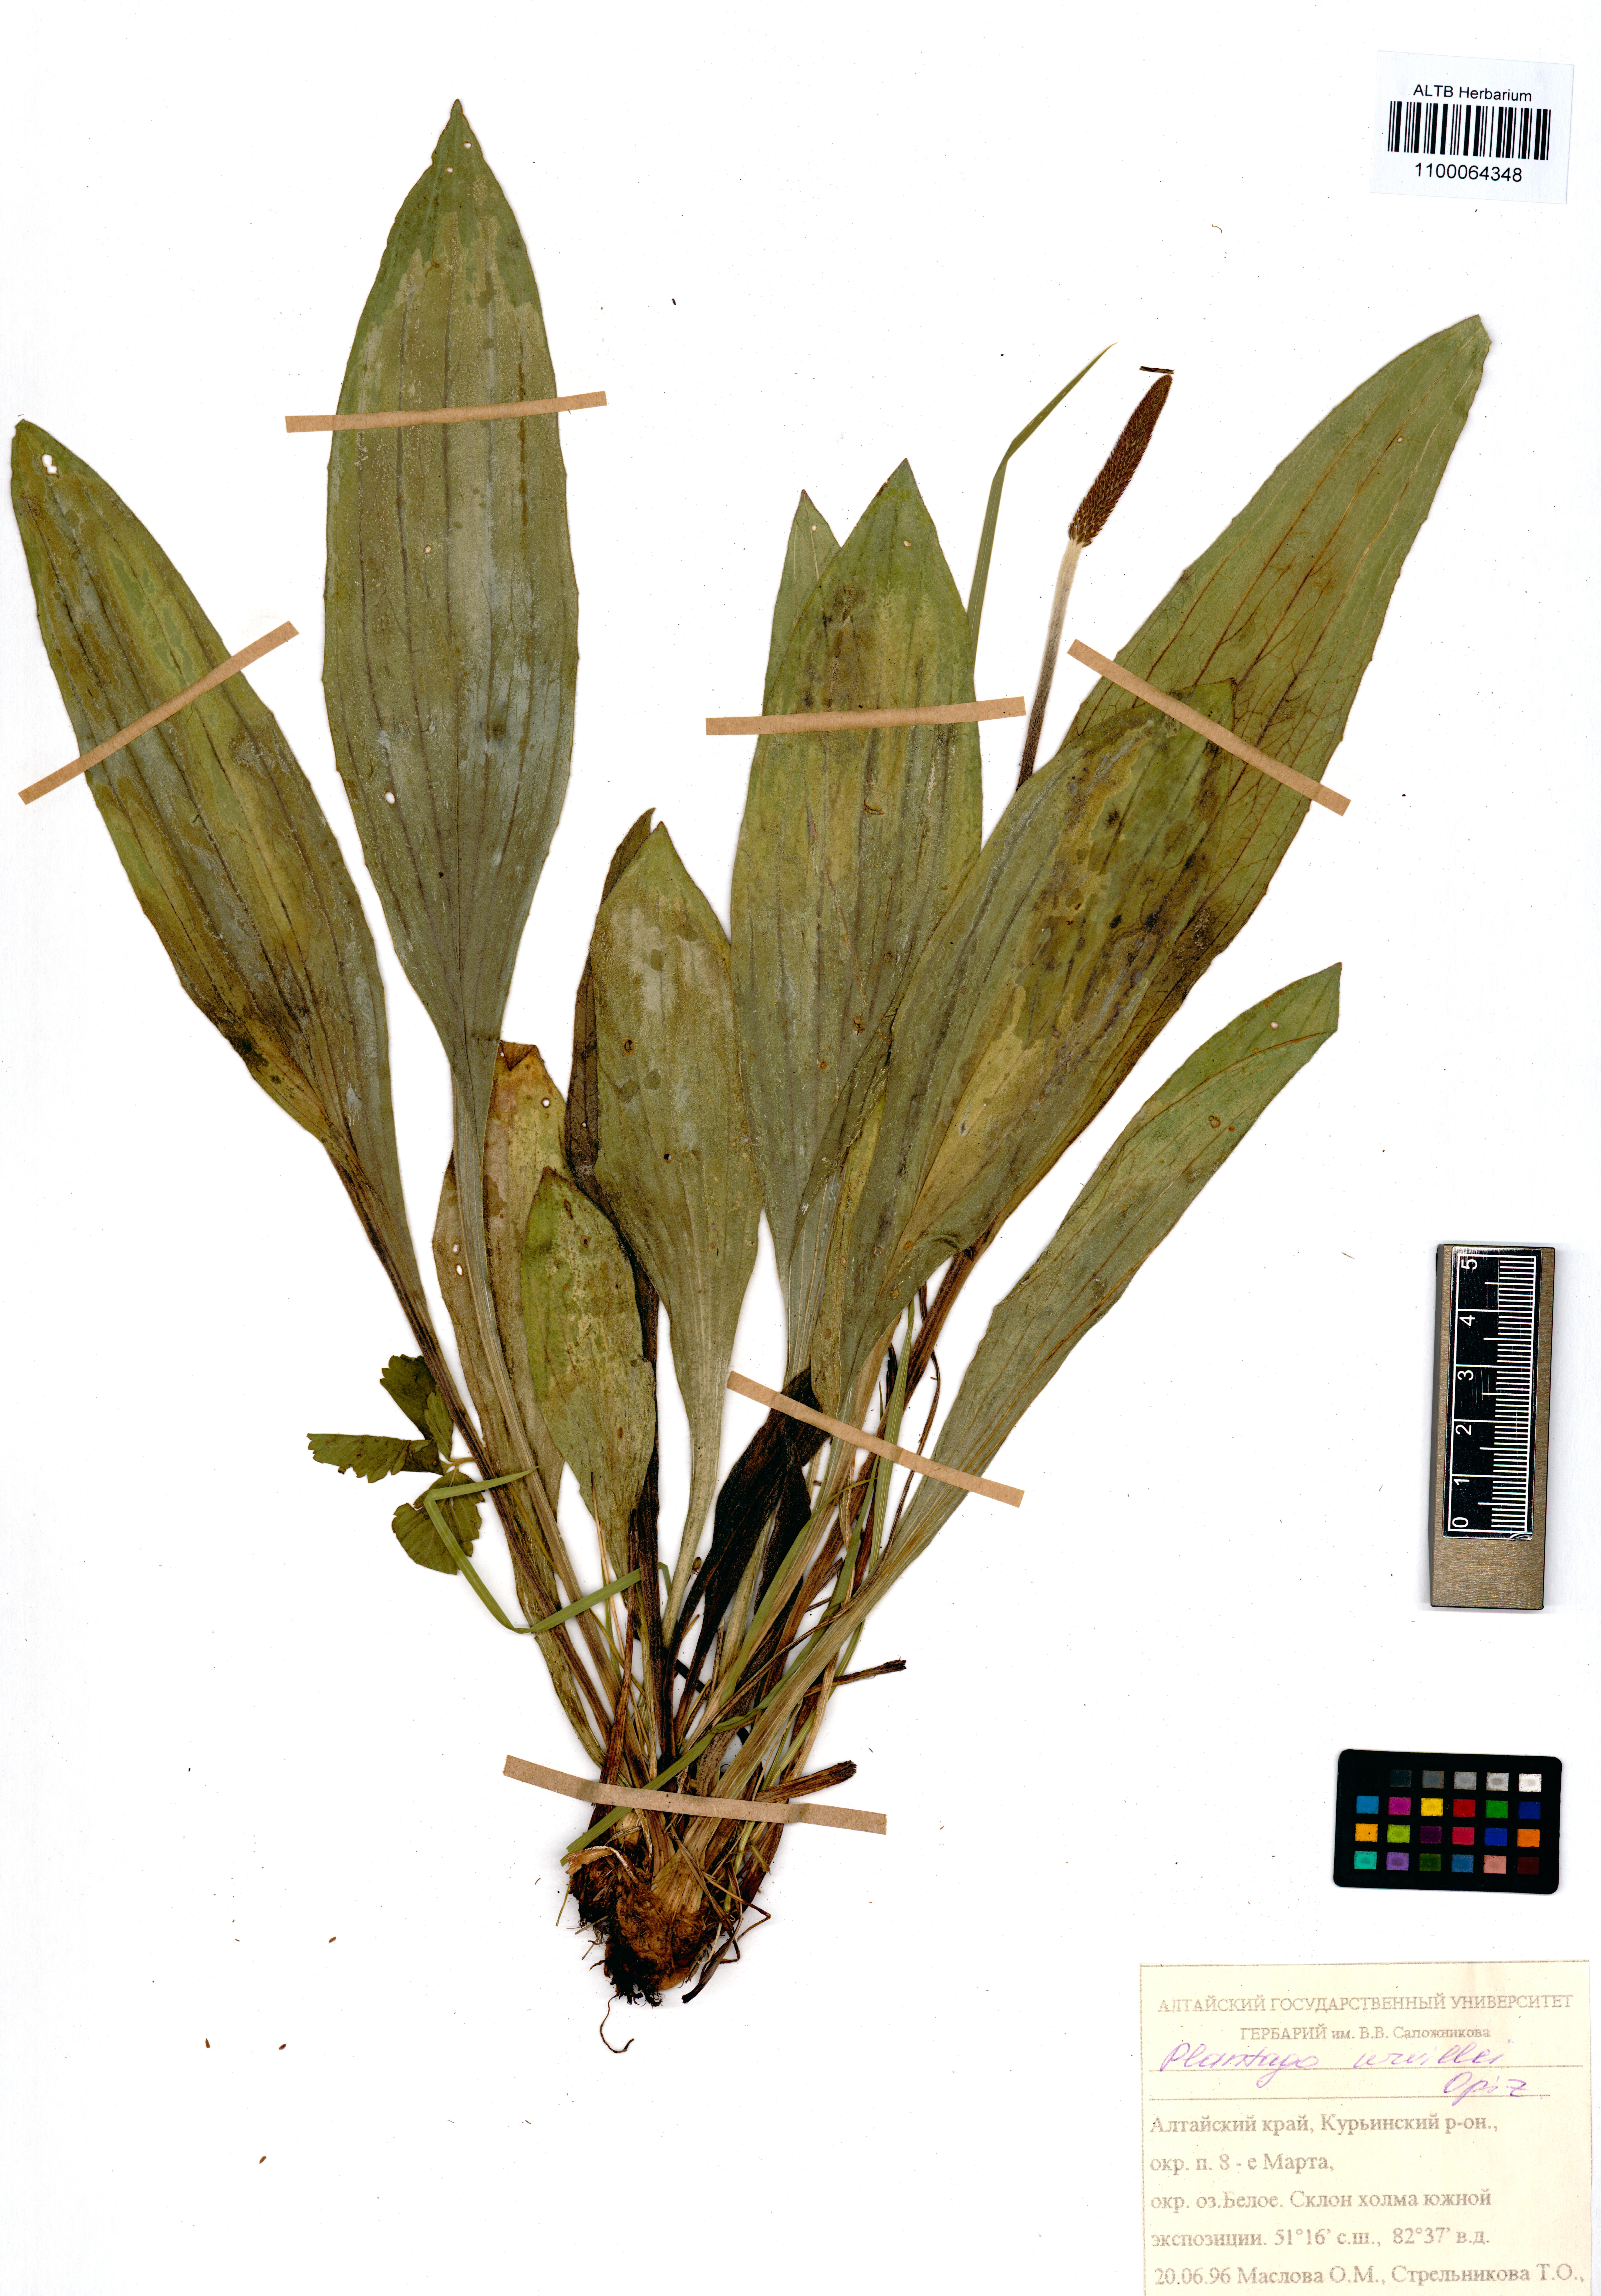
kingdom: Plantae
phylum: Tracheophyta
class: Magnoliopsida
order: Lamiales
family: Plantaginaceae
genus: Plantago
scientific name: Plantago urvillei
